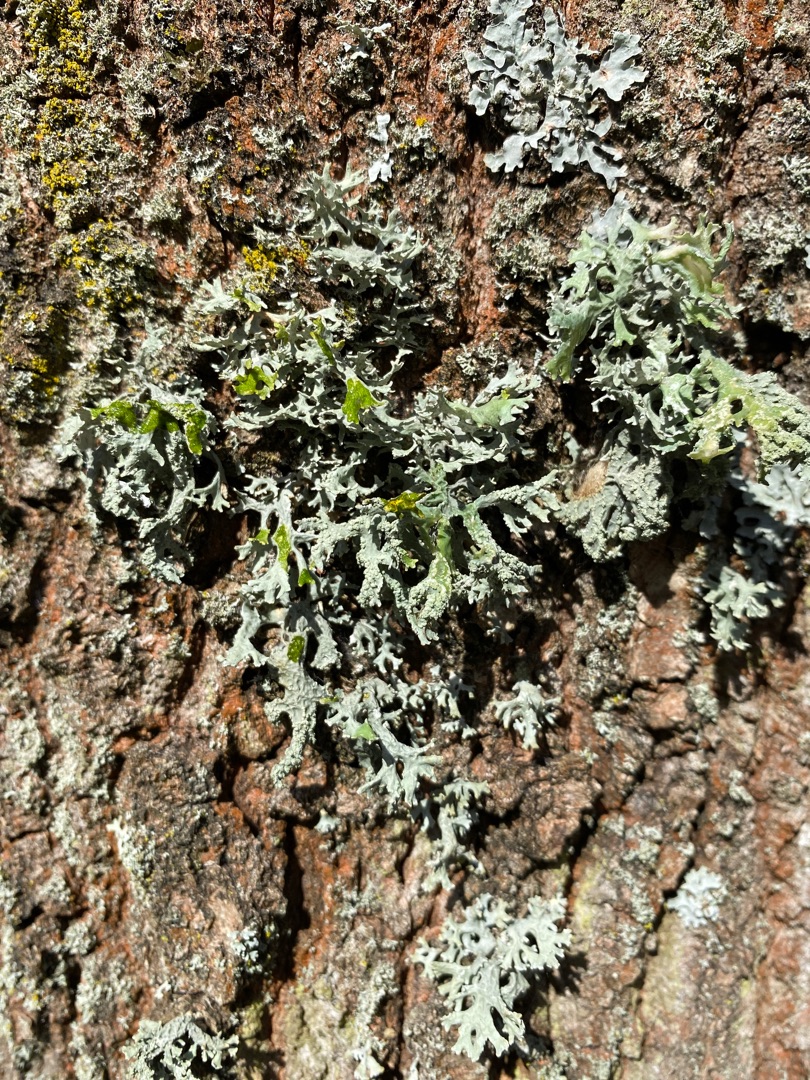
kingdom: Fungi
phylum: Ascomycota
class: Lecanoromycetes
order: Lecanorales
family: Parmeliaceae
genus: Evernia
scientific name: Evernia prunastri
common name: Almindelig slåenlav
